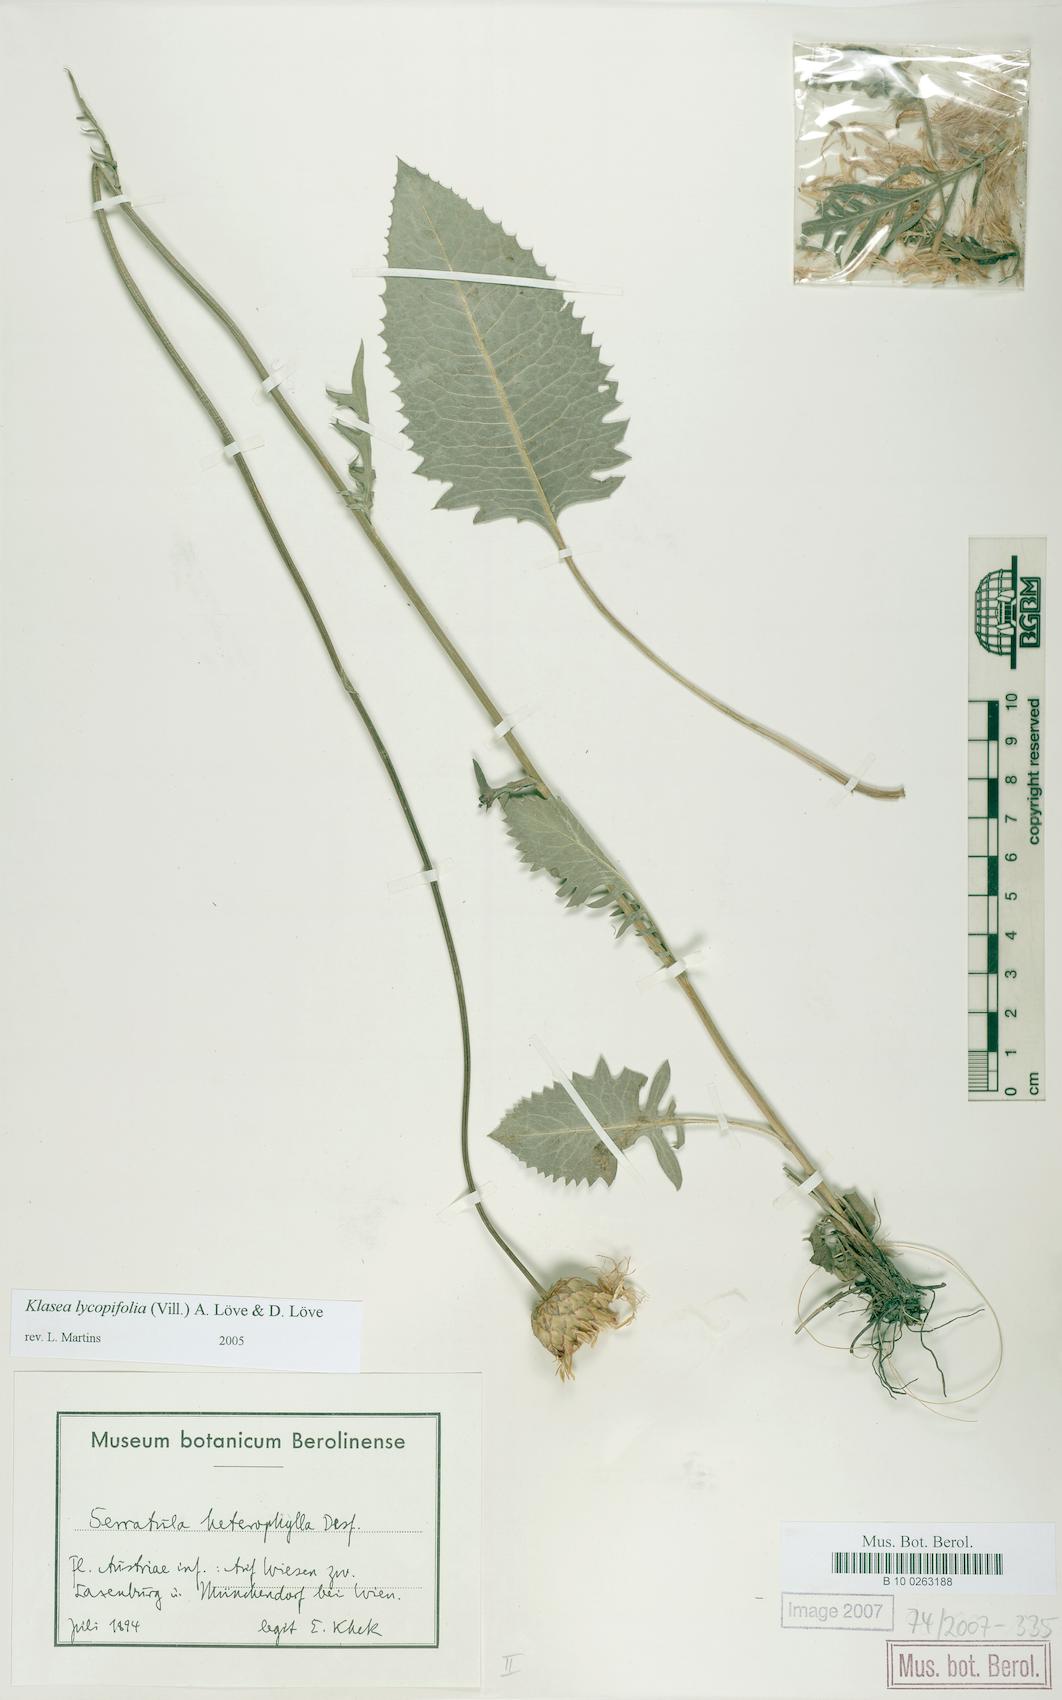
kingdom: Plantae
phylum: Tracheophyta
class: Magnoliopsida
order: Asterales
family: Asteraceae
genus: Klasea
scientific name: Klasea lycopifolia
